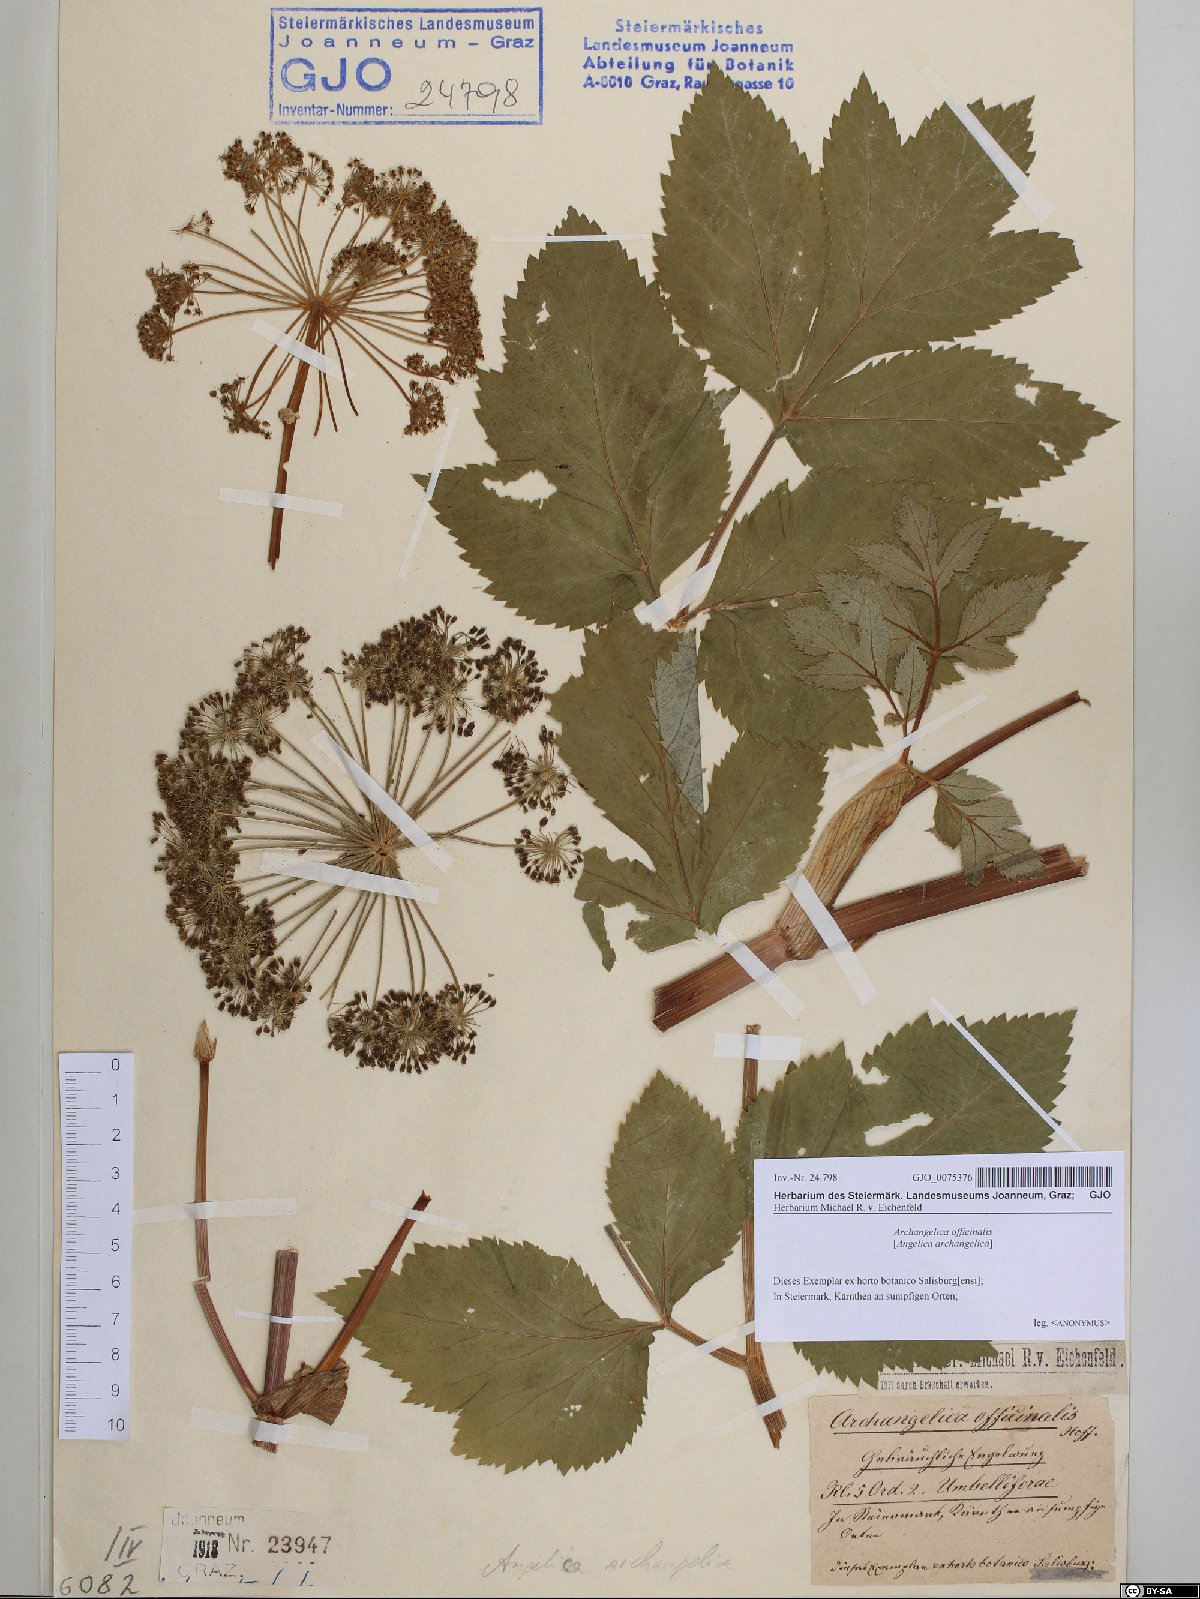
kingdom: Plantae
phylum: Tracheophyta
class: Magnoliopsida
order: Apiales
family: Apiaceae
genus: Angelica
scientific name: Angelica archangelica
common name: Garden angelica
